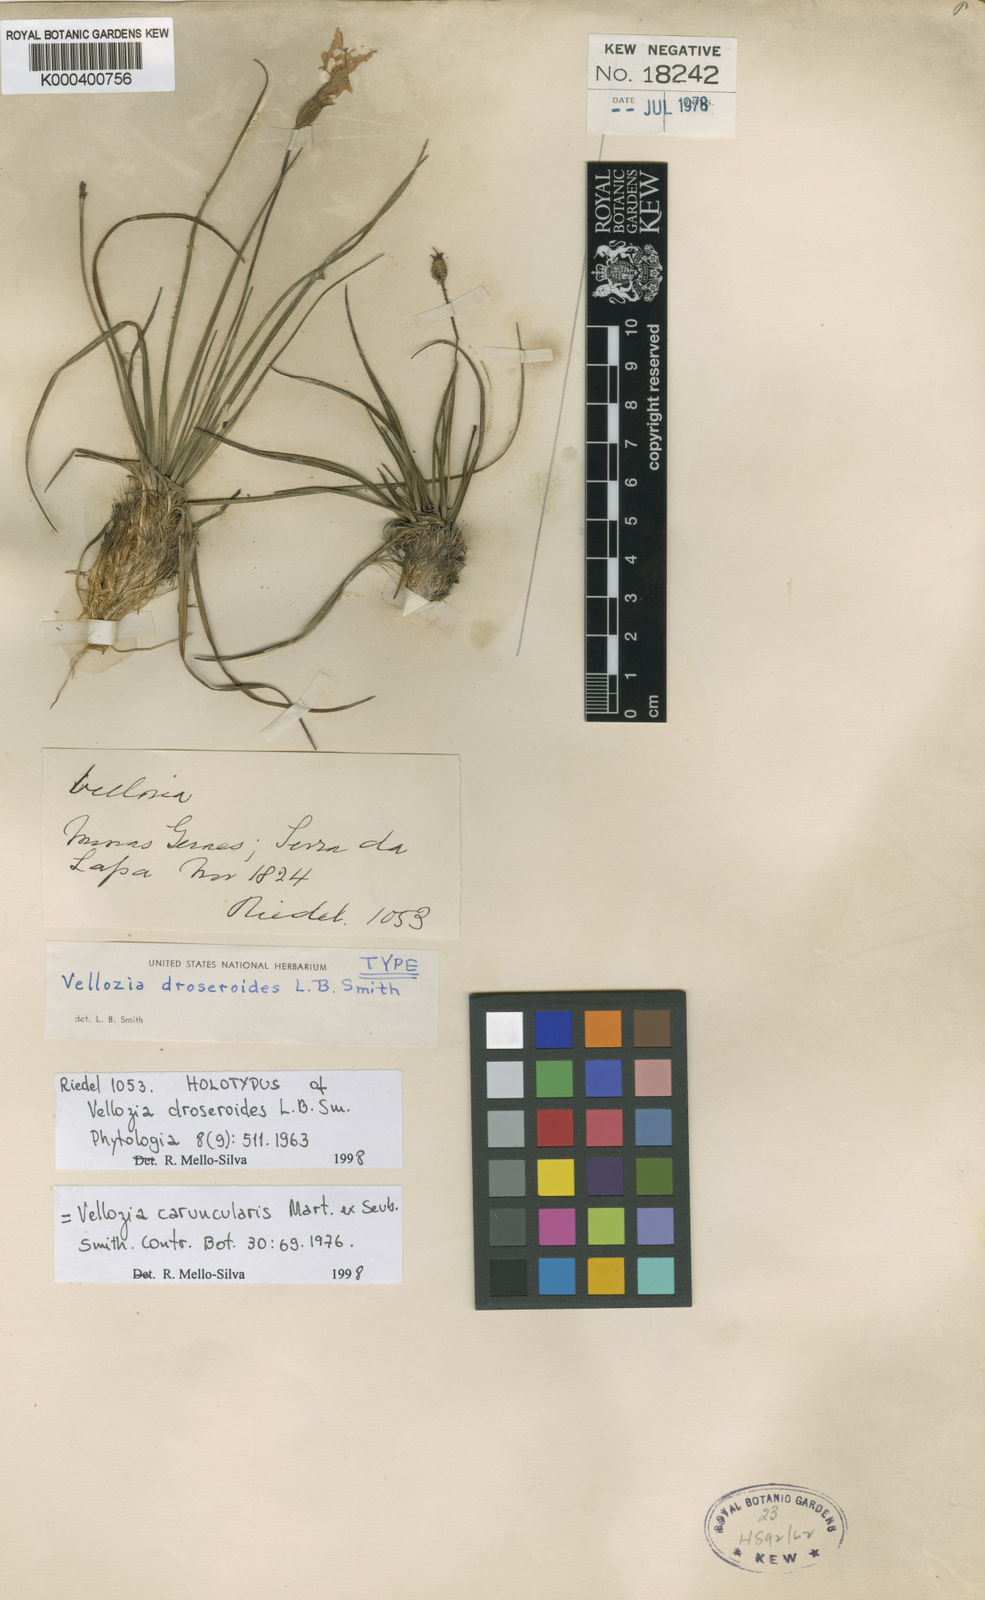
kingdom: Plantae
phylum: Tracheophyta
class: Liliopsida
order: Pandanales
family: Velloziaceae
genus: Vellozia
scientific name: Vellozia caruncularis
